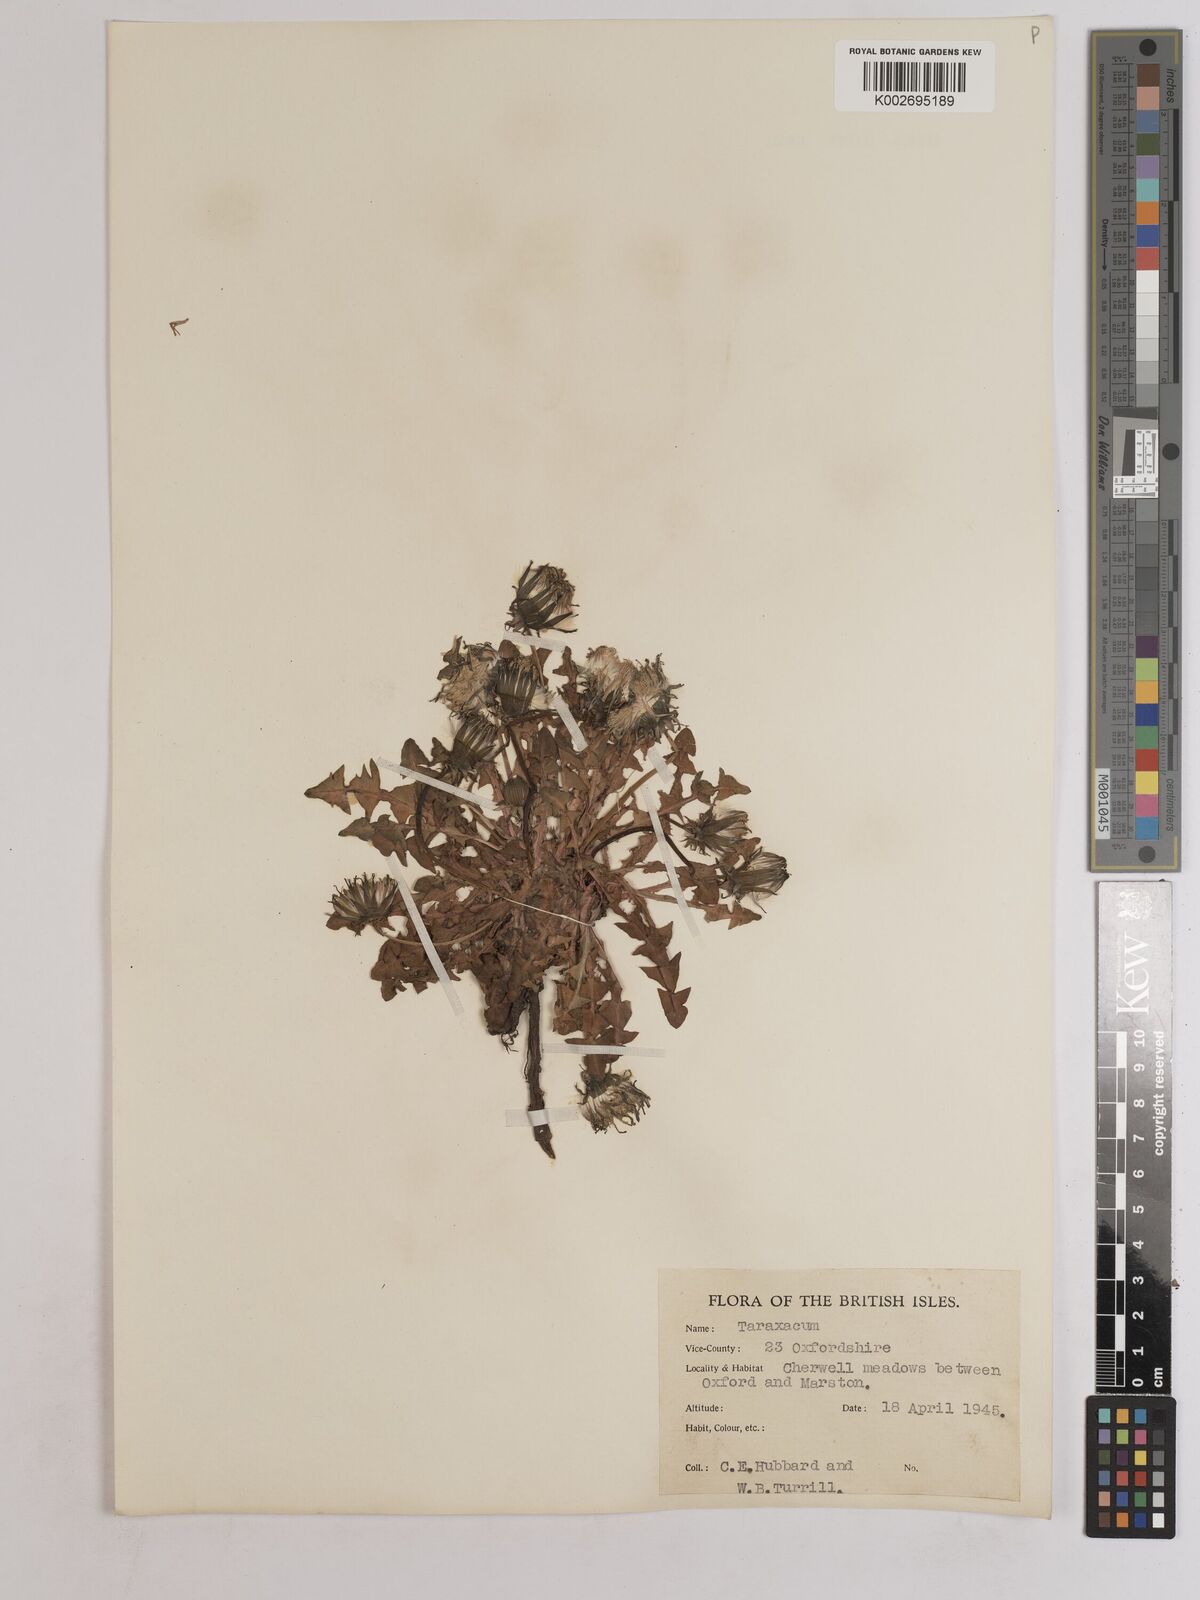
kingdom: Plantae
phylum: Tracheophyta
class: Magnoliopsida
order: Asterales
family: Asteraceae
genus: Taraxacum
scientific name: Taraxacum officinale
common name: Common dandelion
